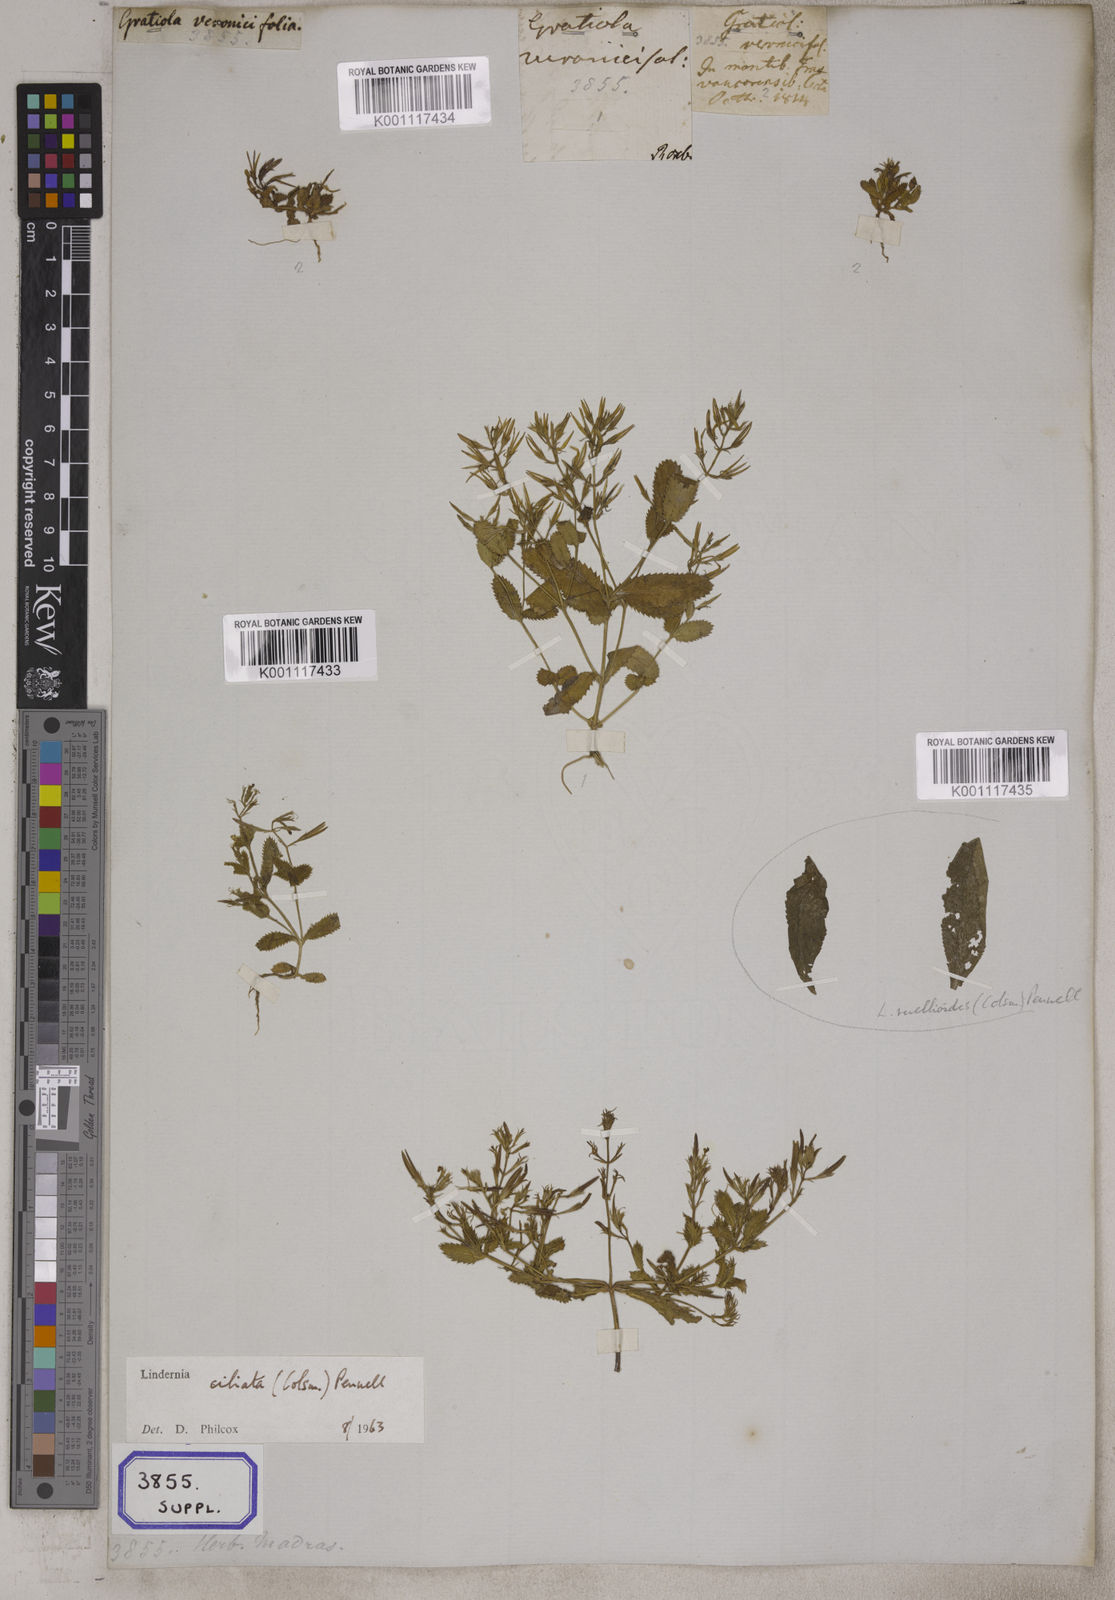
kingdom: Plantae
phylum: Tracheophyta
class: Magnoliopsida
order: Lamiales
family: Linderniaceae
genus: Bonnaya
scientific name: Bonnaya ciliata
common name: Hairy slitwort
